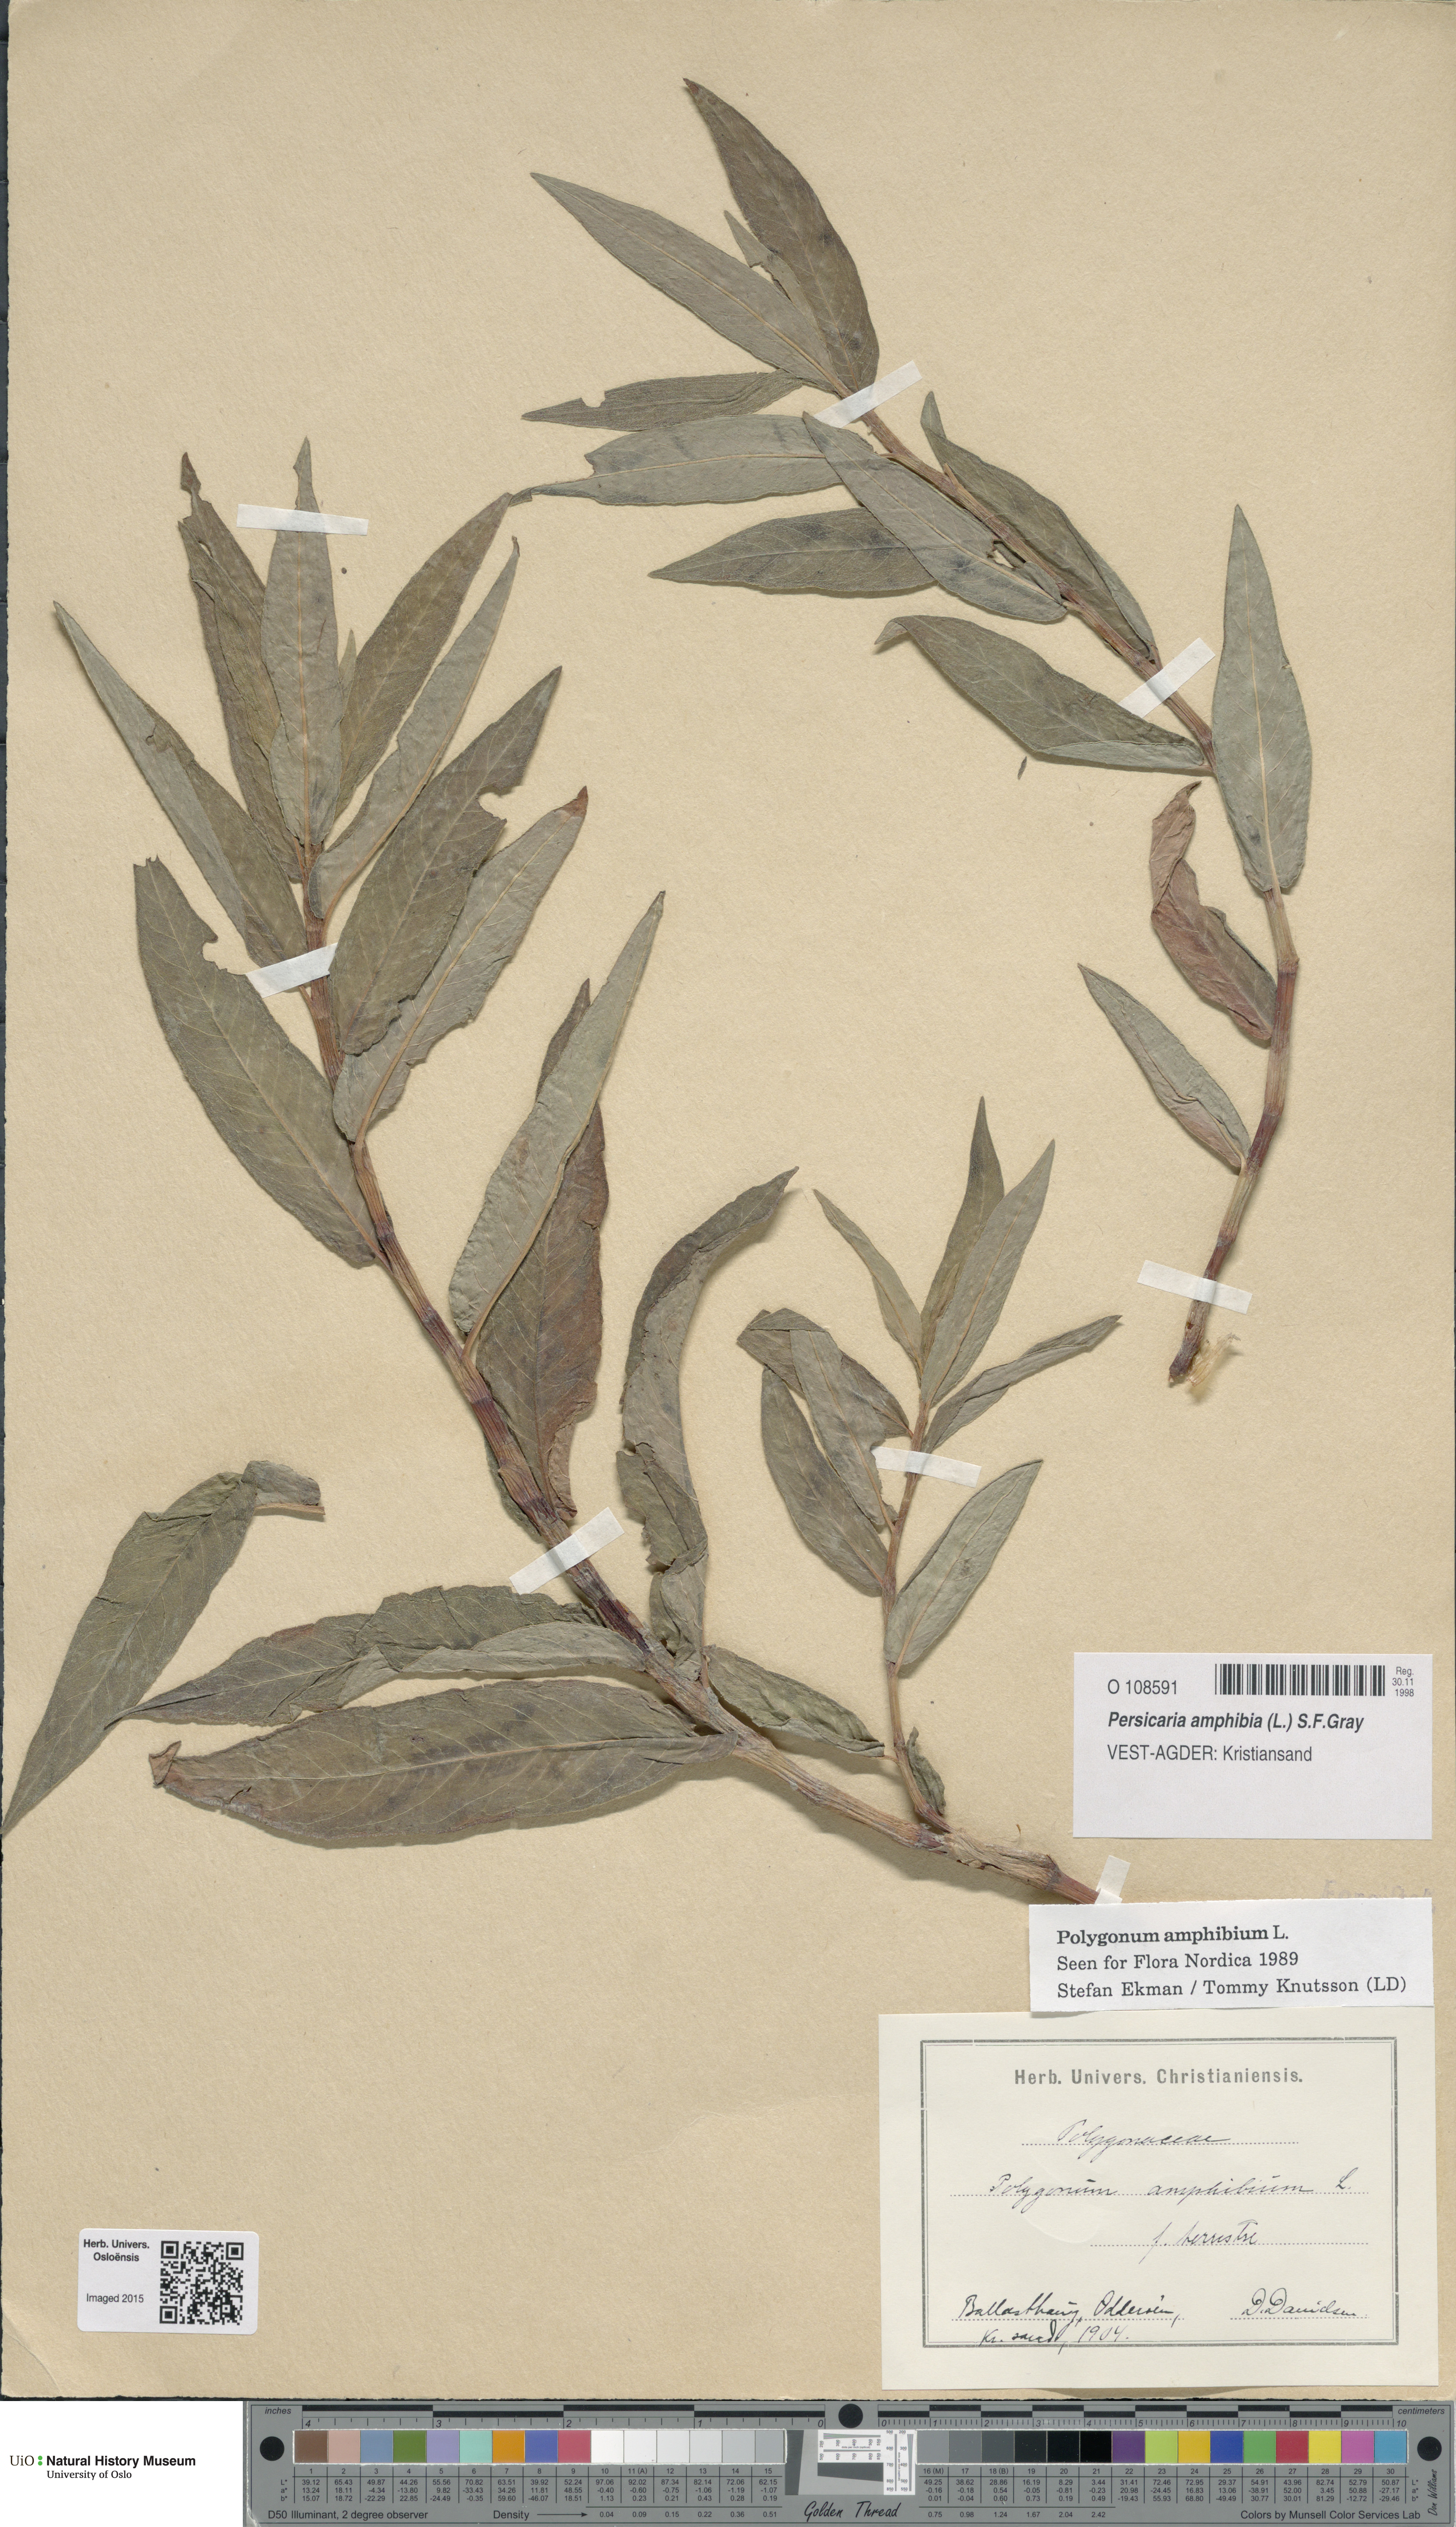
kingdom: Plantae
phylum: Tracheophyta
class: Magnoliopsida
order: Caryophyllales
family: Polygonaceae
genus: Persicaria
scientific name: Persicaria amphibia
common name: Amphibious bistort
